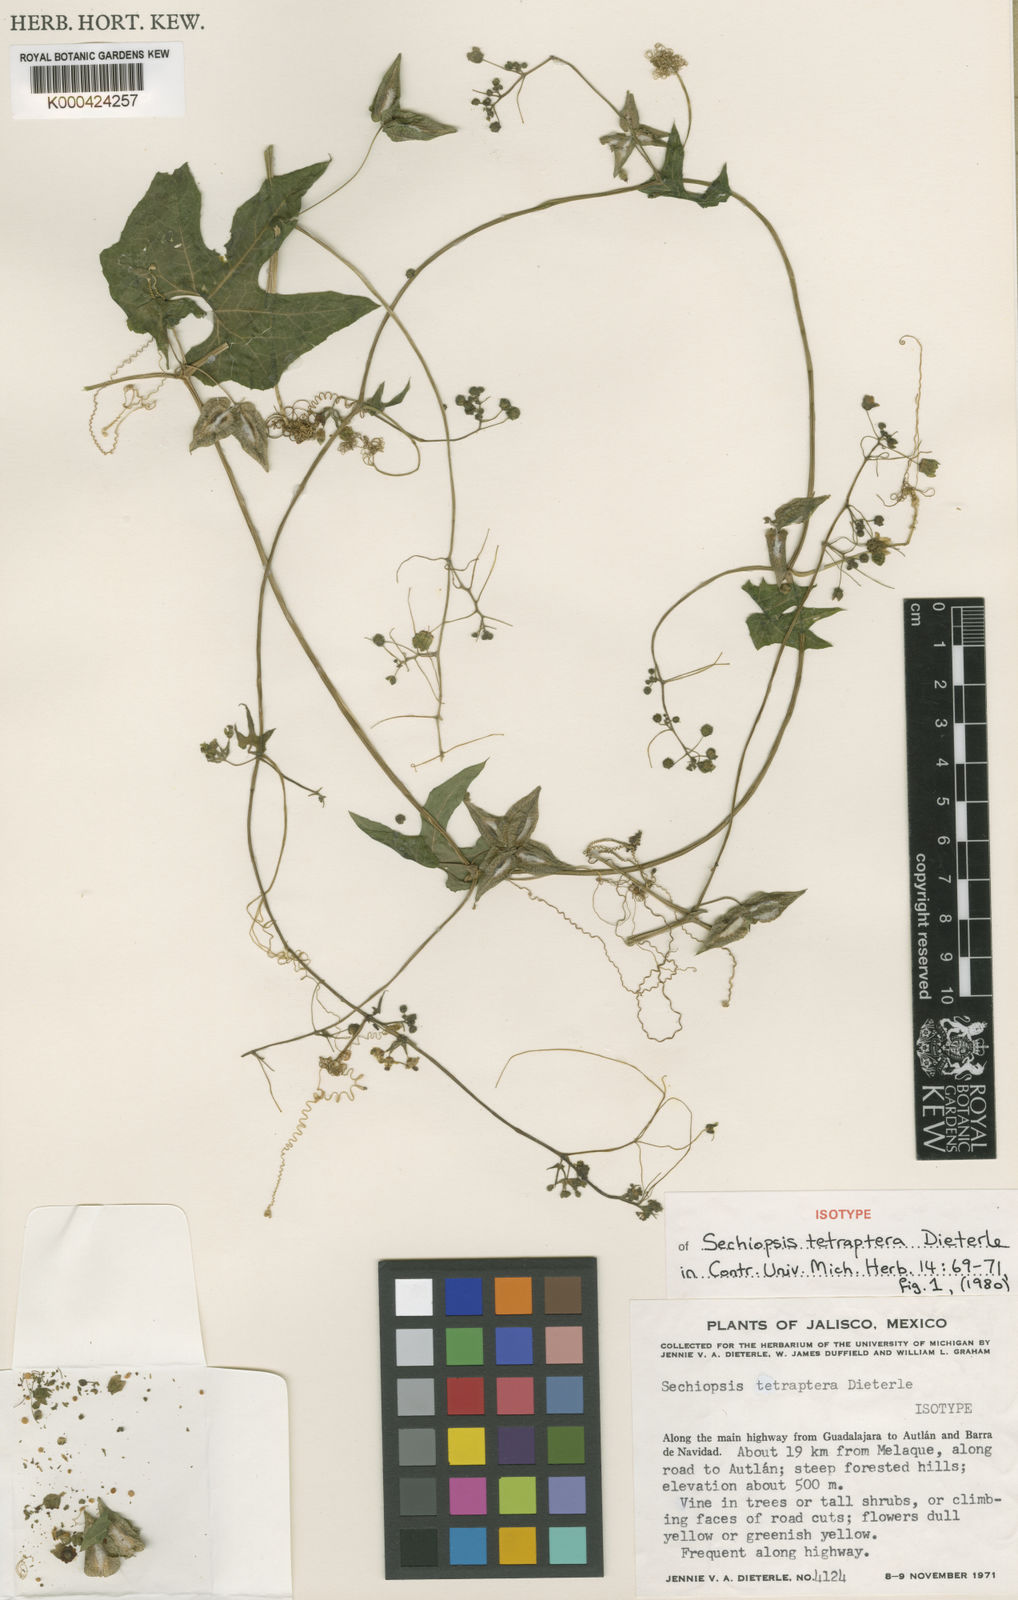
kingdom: Plantae
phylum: Tracheophyta
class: Magnoliopsida
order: Cucurbitales
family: Cucurbitaceae
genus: Sechiopsis
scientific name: Sechiopsis tetraptera
